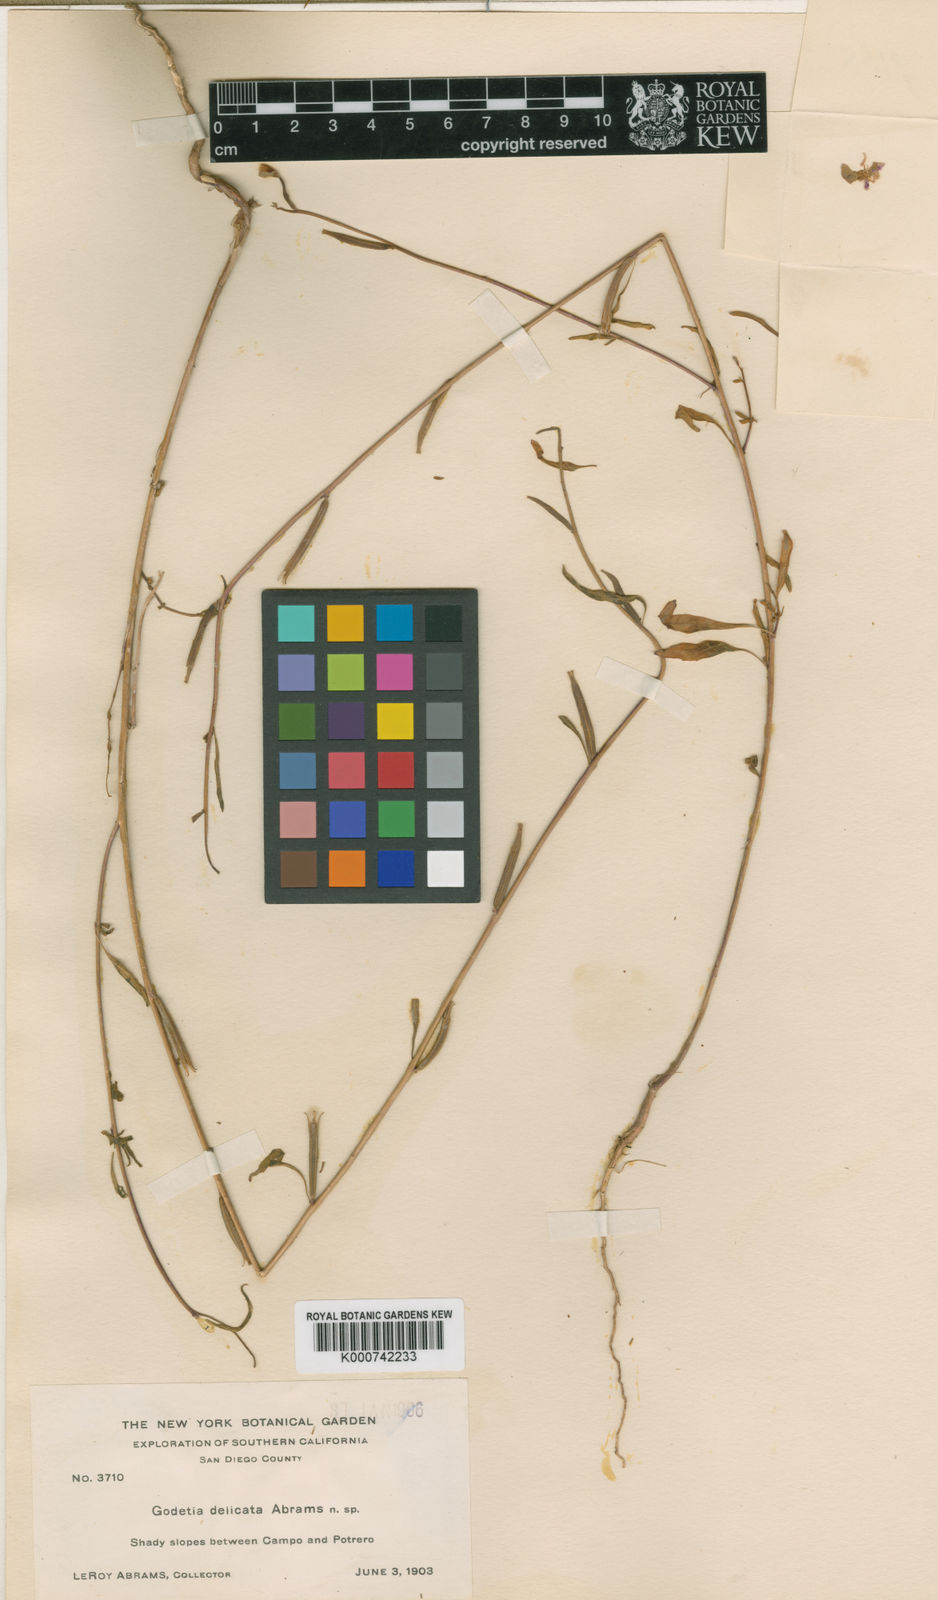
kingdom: Plantae
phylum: Tracheophyta
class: Magnoliopsida
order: Myrtales
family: Onagraceae
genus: Clarkia
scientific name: Clarkia delicata
